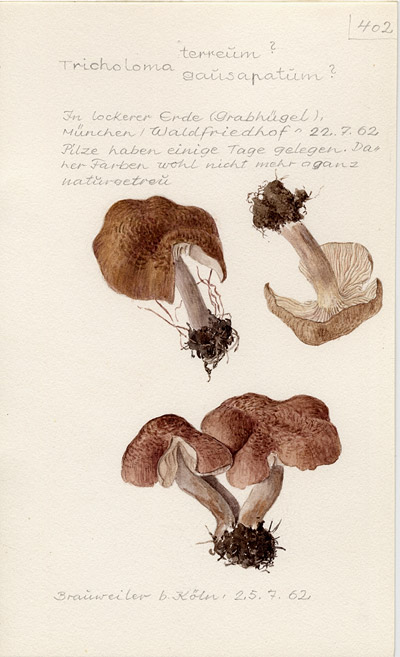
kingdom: Fungi
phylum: Basidiomycota
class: Agaricomycetes
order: Agaricales
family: Tricholomataceae
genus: Tricholoma
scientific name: Tricholoma gausapatum
